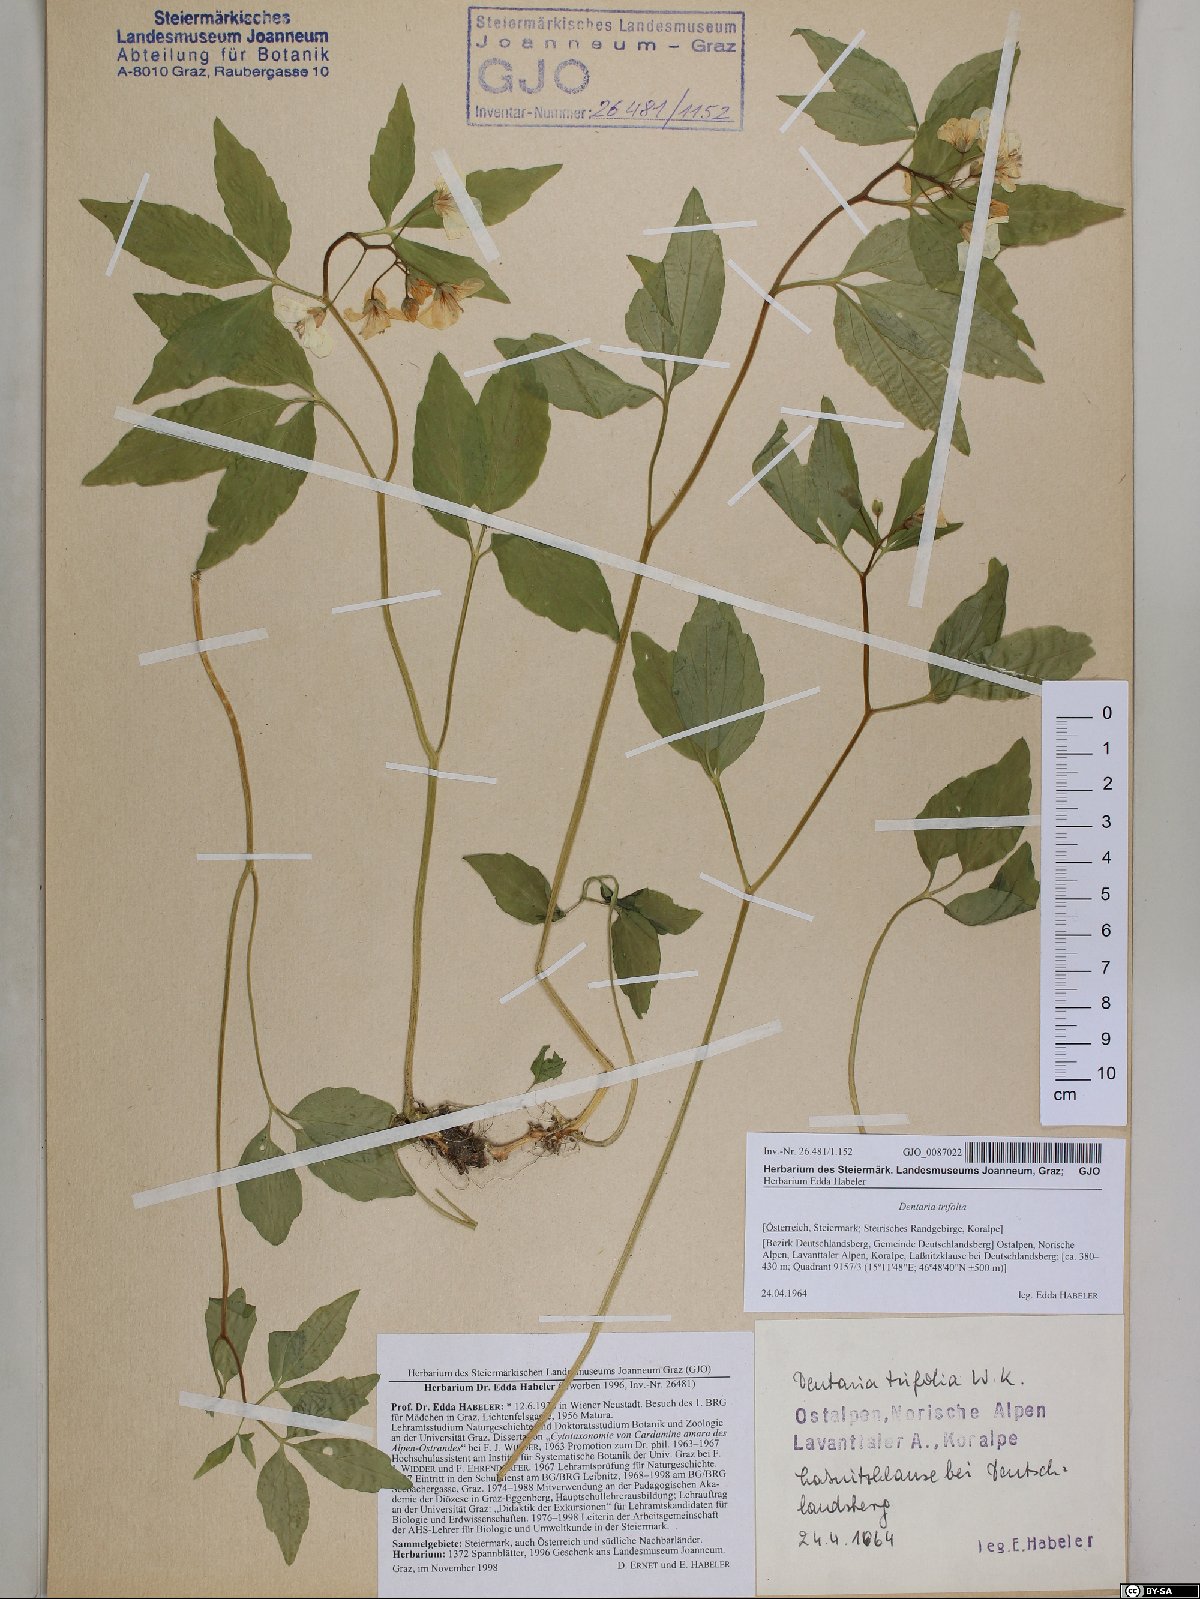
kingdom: Plantae
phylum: Tracheophyta
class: Magnoliopsida
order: Brassicales
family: Brassicaceae
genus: Cardamine
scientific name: Cardamine waldsteinii
